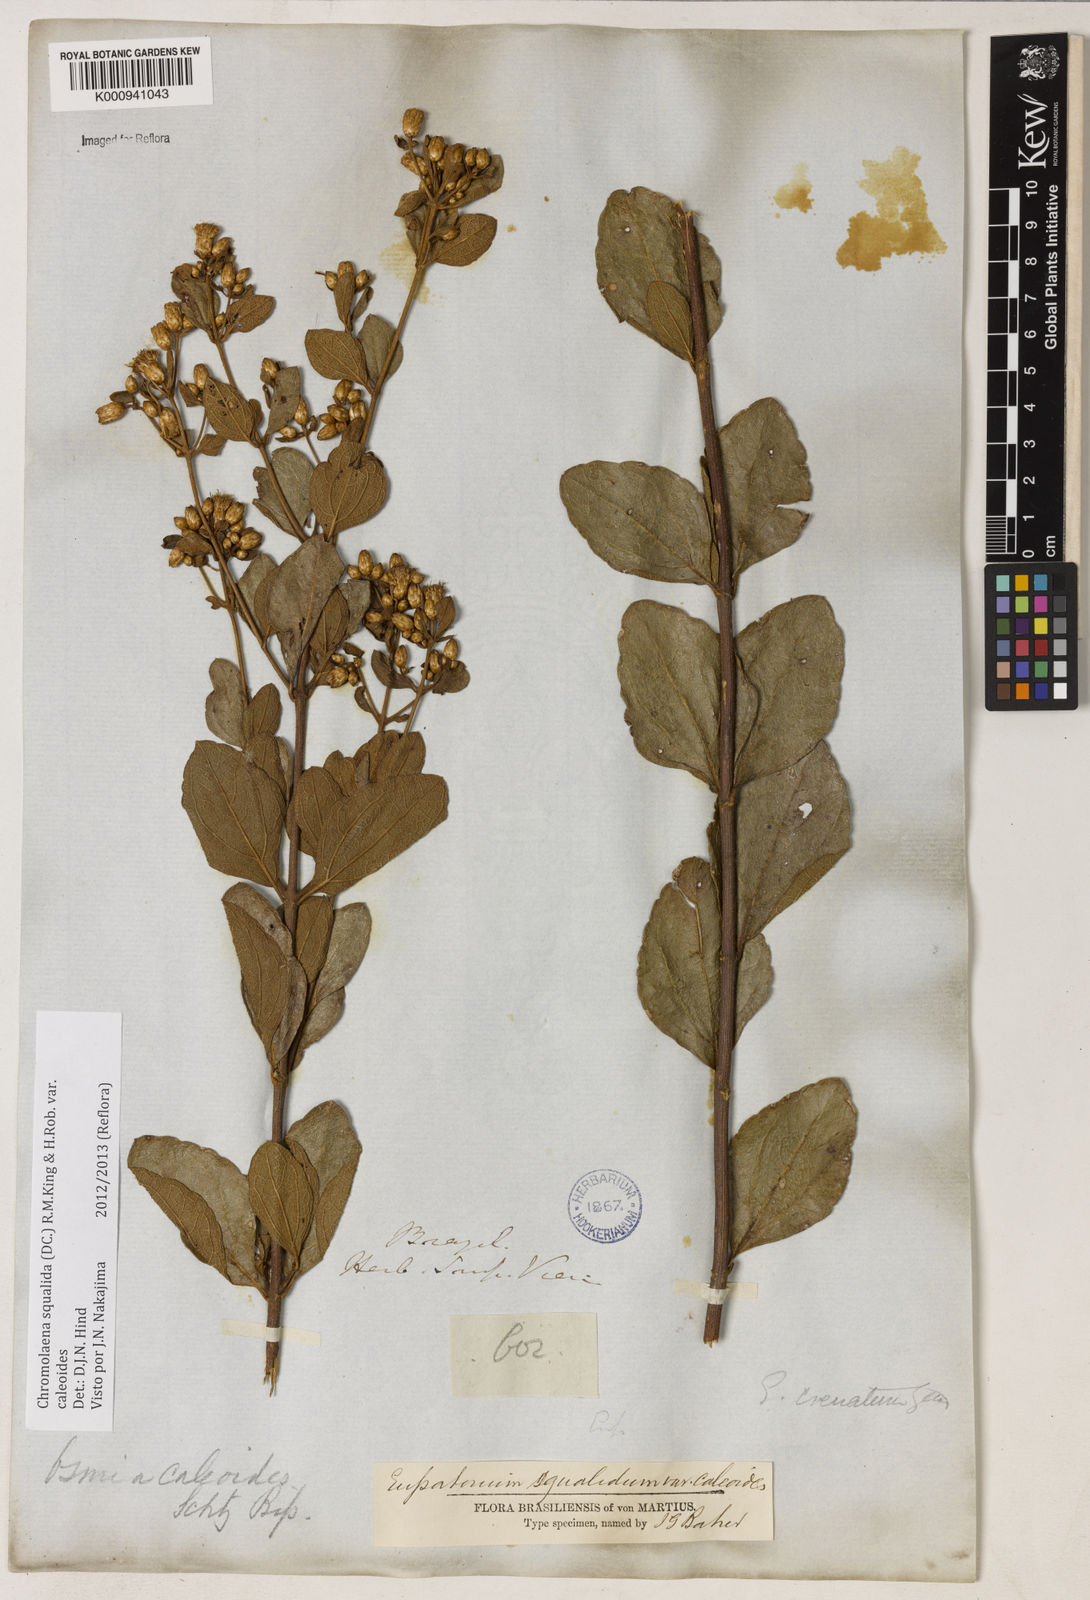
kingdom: Plantae
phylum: Tracheophyta
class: Magnoliopsida
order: Asterales
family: Asteraceae
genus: Chromolaena
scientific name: Chromolaena squalida
